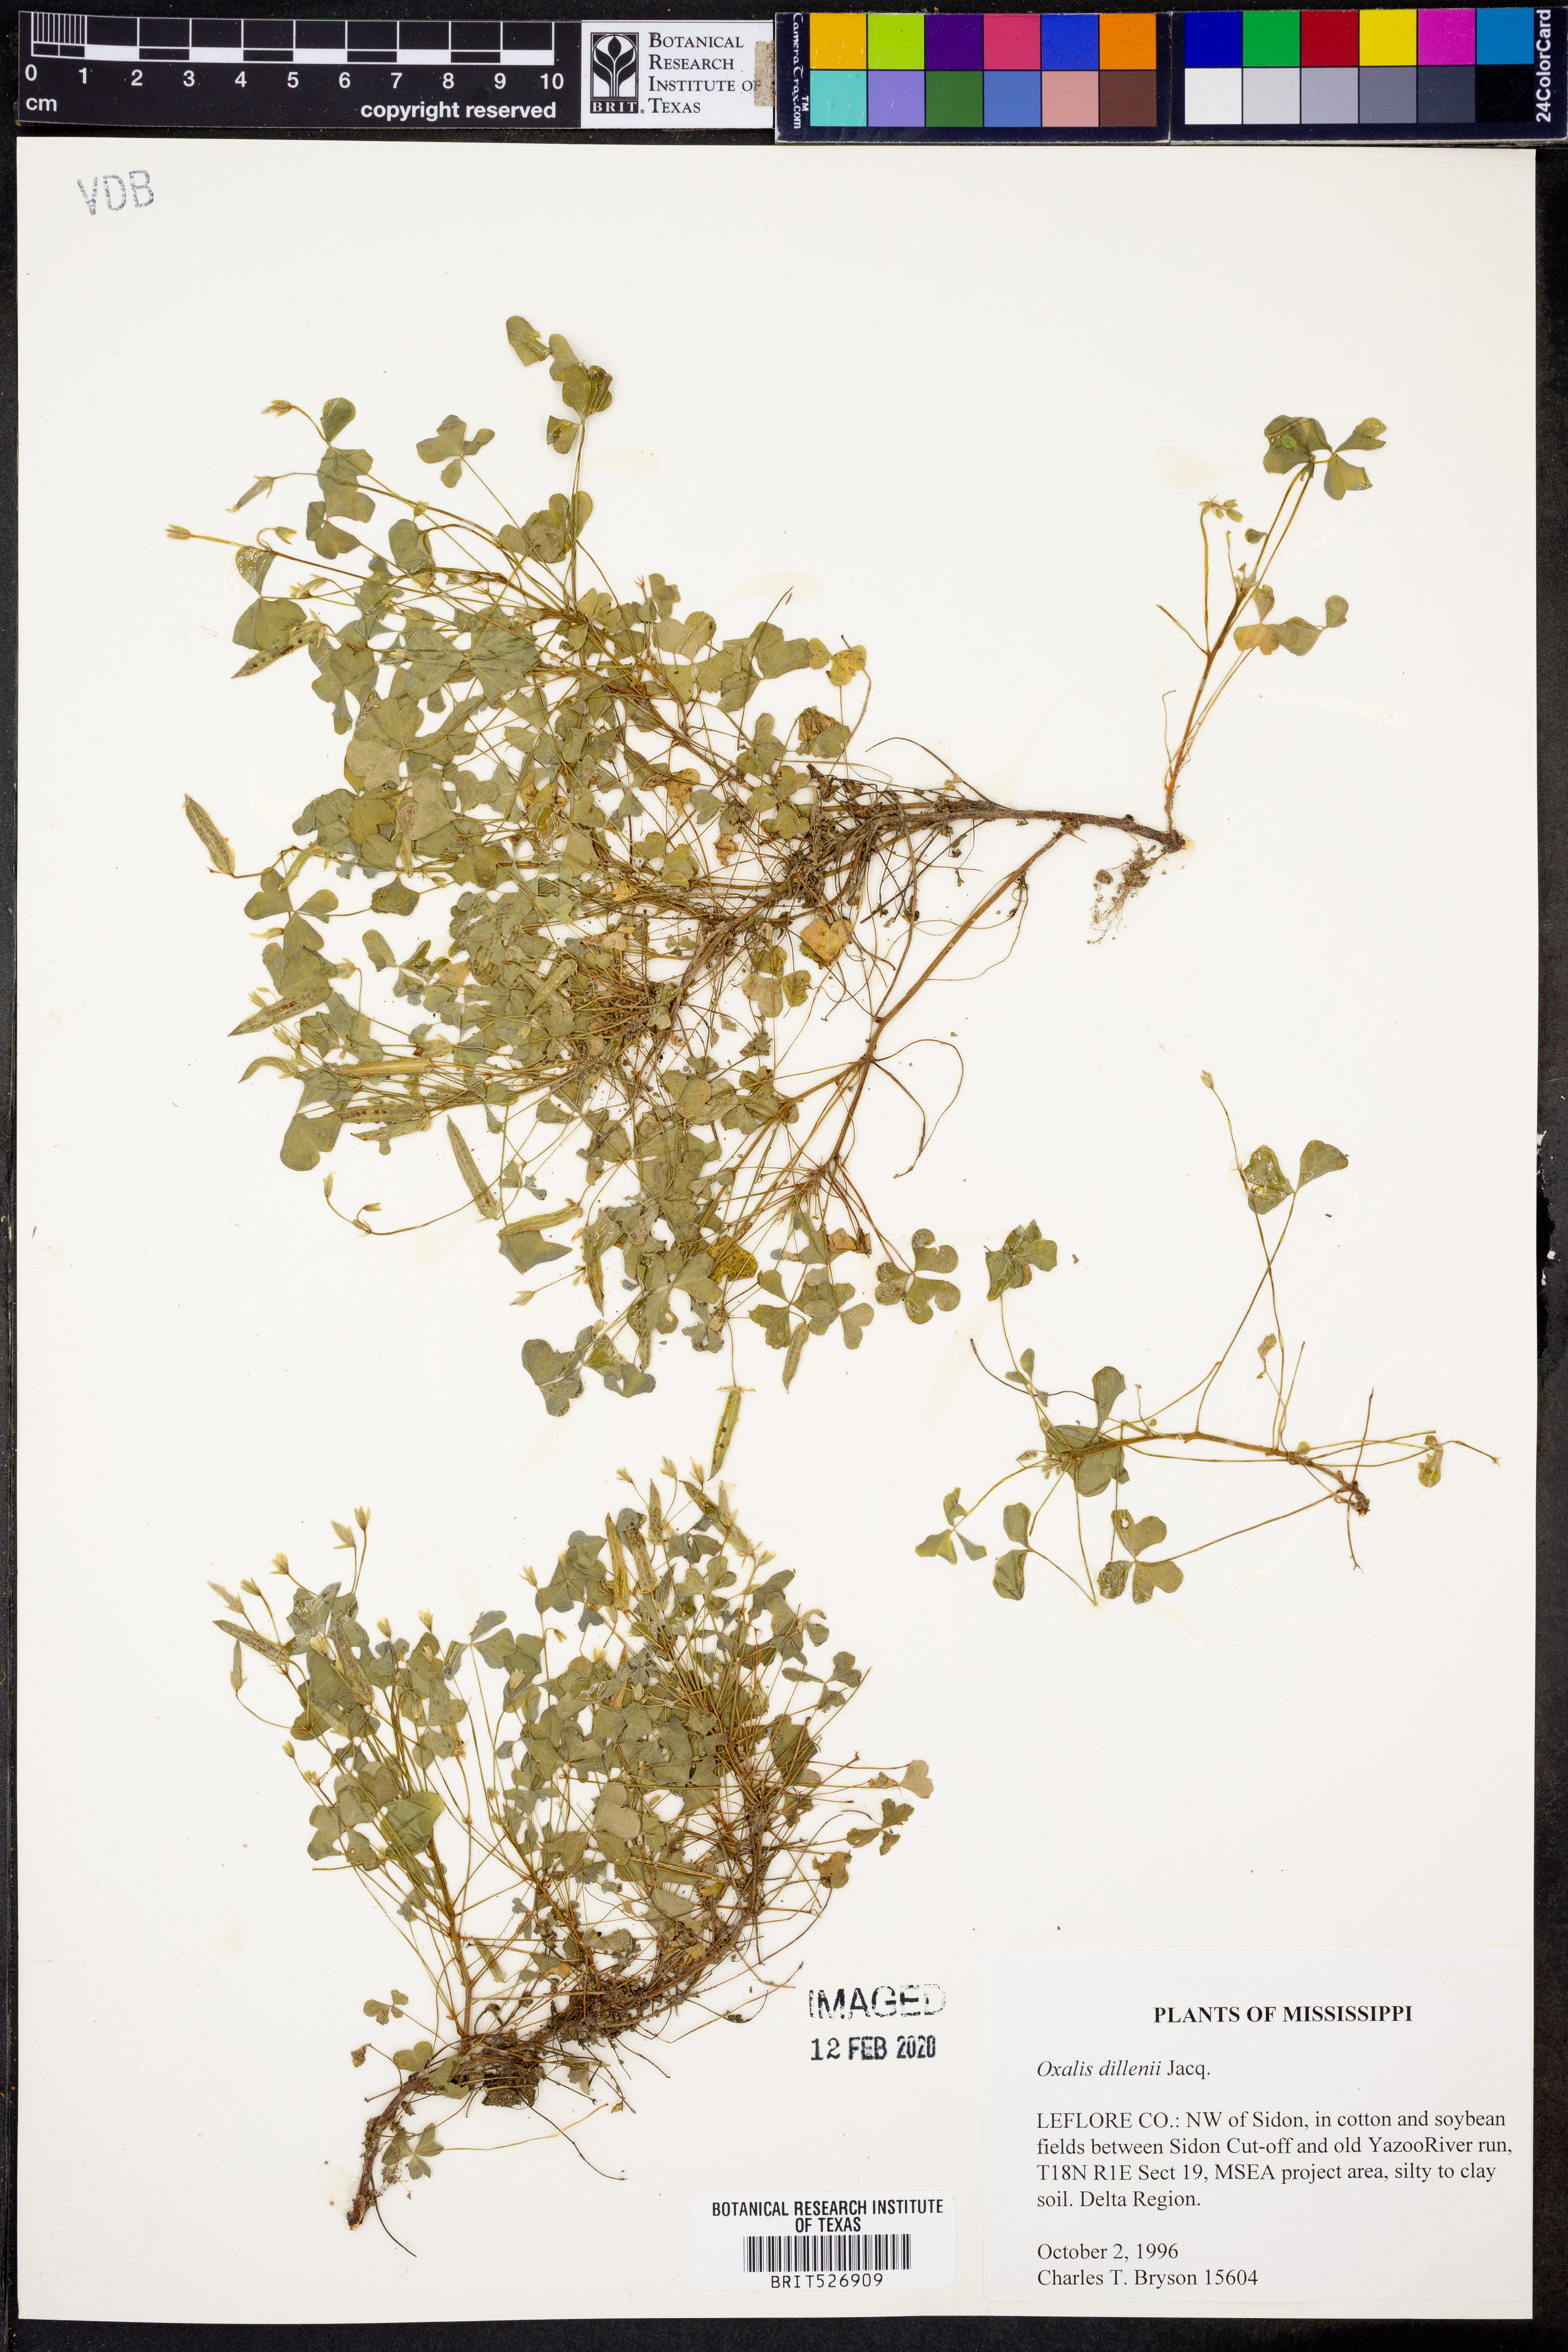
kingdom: Plantae
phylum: Tracheophyta
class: Magnoliopsida
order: Oxalidales
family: Oxalidaceae
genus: Oxalis
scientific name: Oxalis dillenii
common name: Sussex yellow-sorrel
